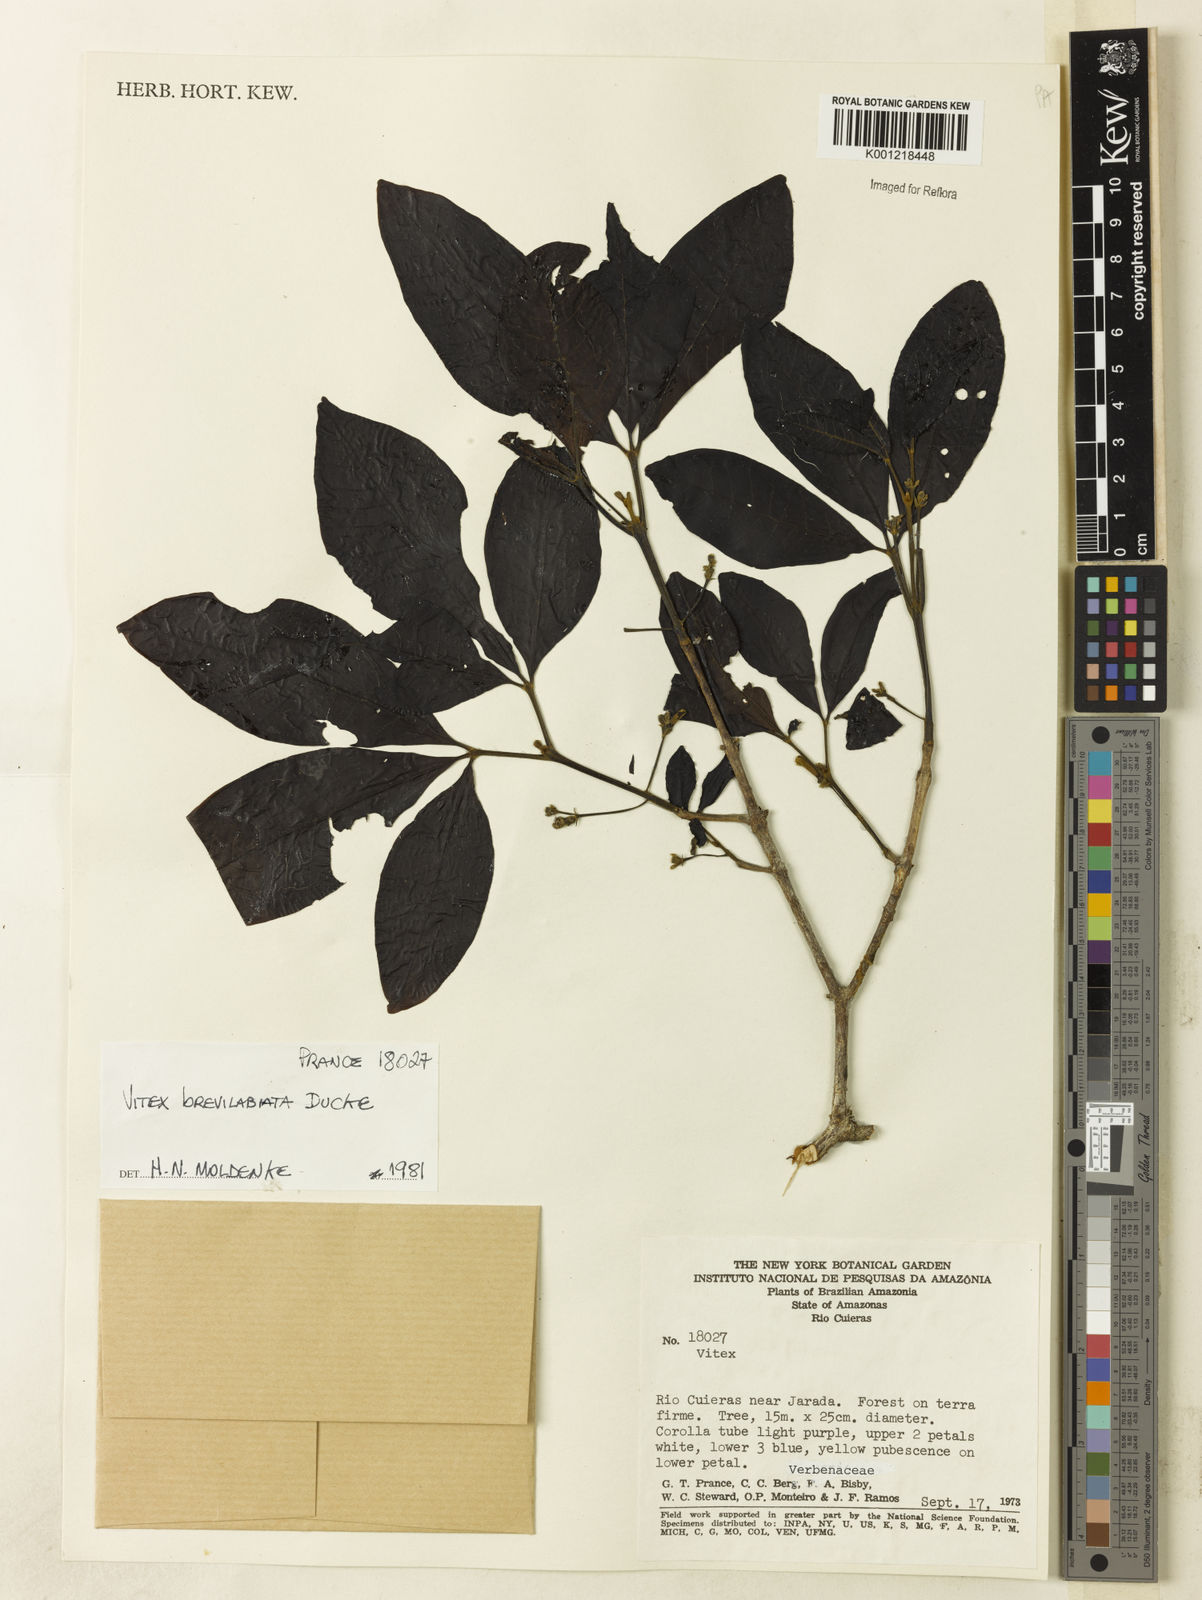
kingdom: Plantae
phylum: Tracheophyta
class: Magnoliopsida
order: Lamiales
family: Lamiaceae
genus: Vitex
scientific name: Vitex brevilabiata
